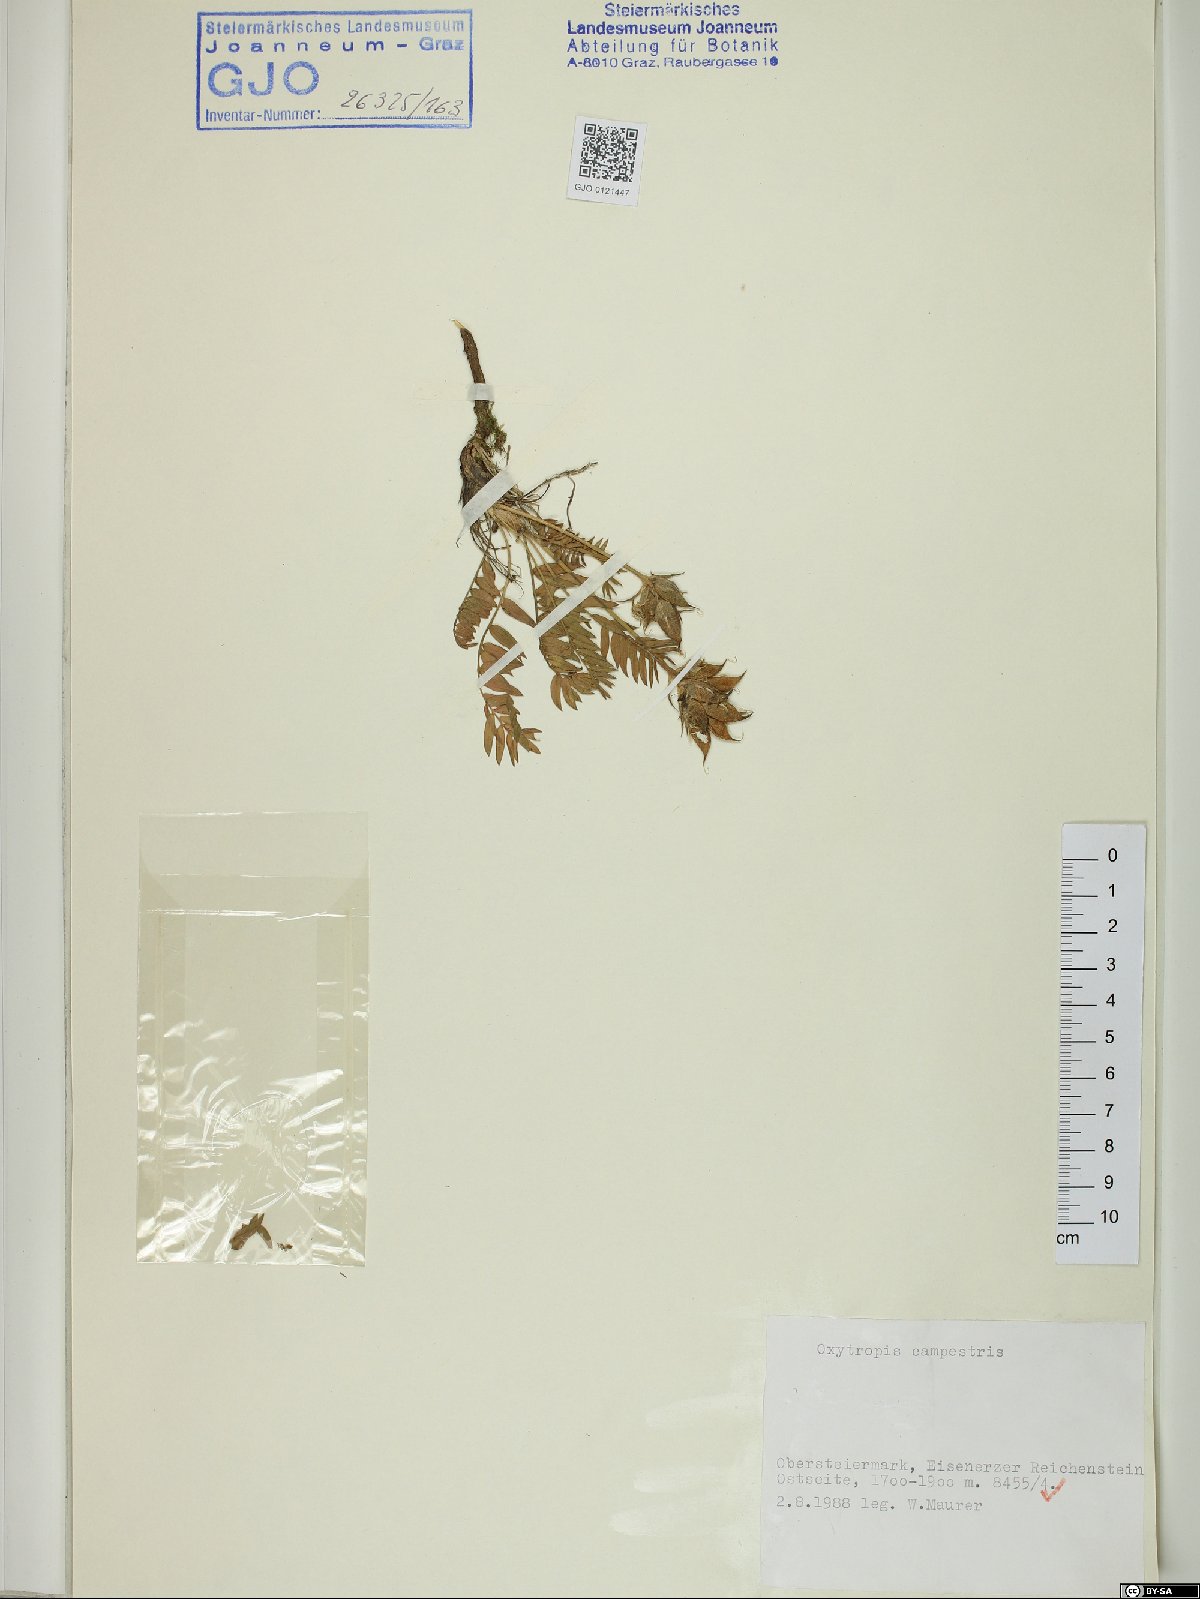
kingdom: Plantae
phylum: Tracheophyta
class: Magnoliopsida
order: Fabales
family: Fabaceae
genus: Oxytropis
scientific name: Oxytropis campestris
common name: Field locoweed
